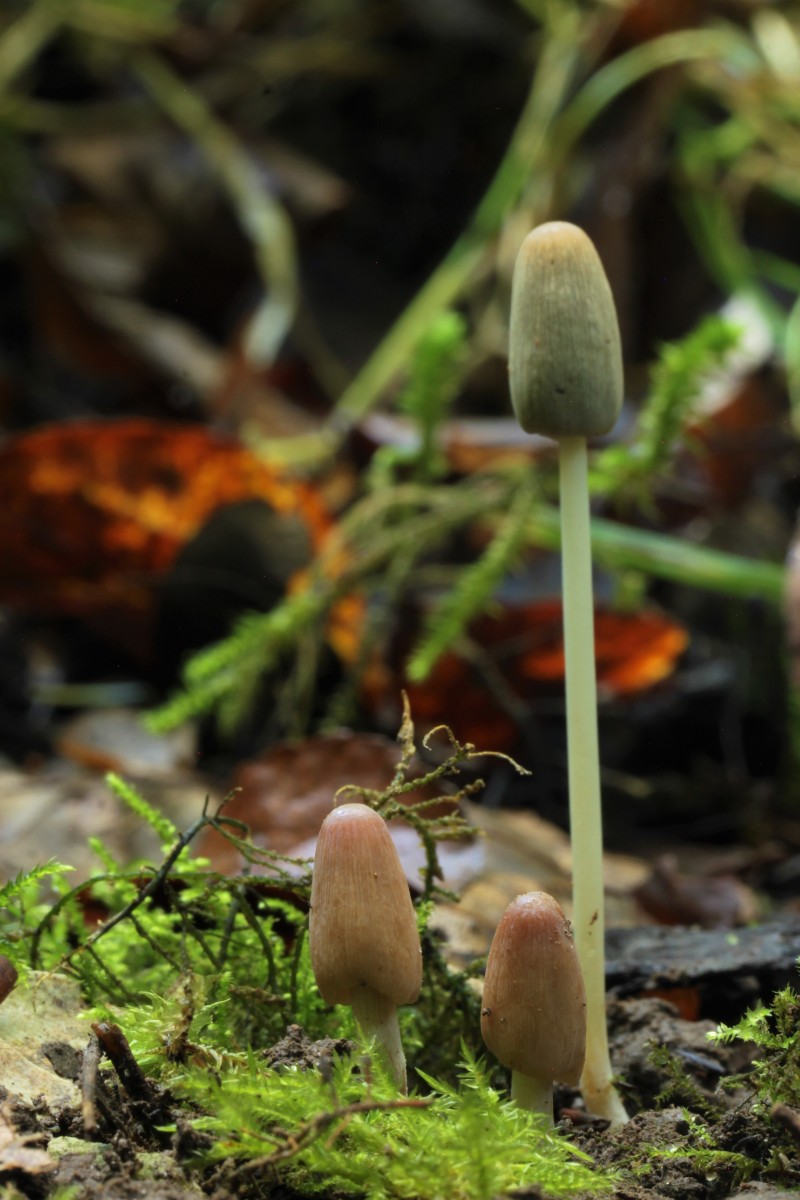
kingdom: Fungi
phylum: Basidiomycota
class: Agaricomycetes
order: Agaricales
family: Psathyrellaceae
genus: Parasola
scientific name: Parasola
